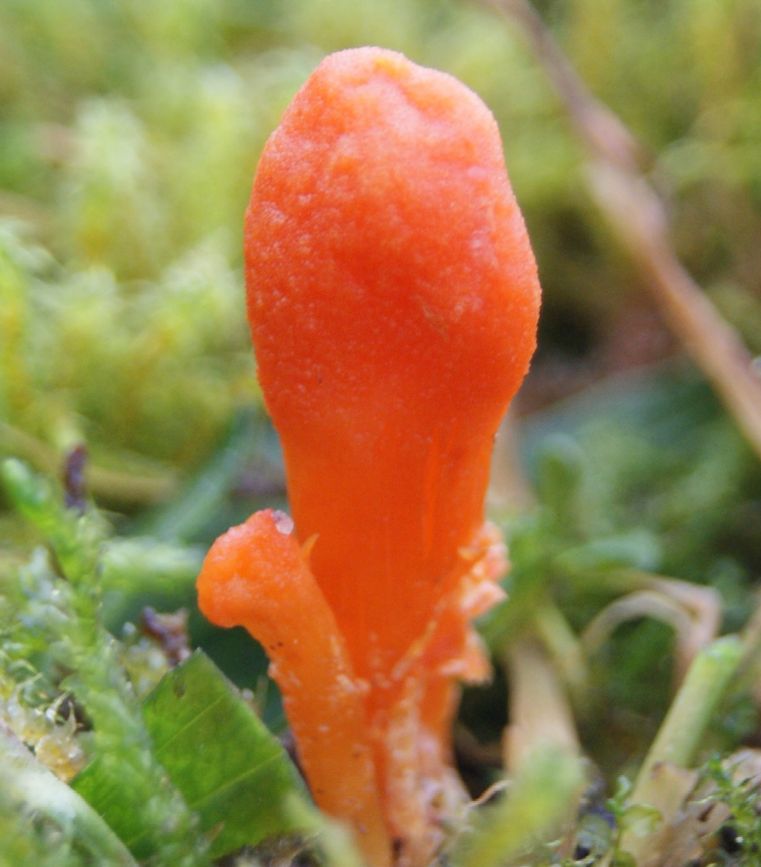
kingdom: Fungi
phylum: Ascomycota
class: Sordariomycetes
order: Hypocreales
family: Cordycipitaceae
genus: Cordyceps
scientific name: Cordyceps militaris
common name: puppe-snyltekølle
